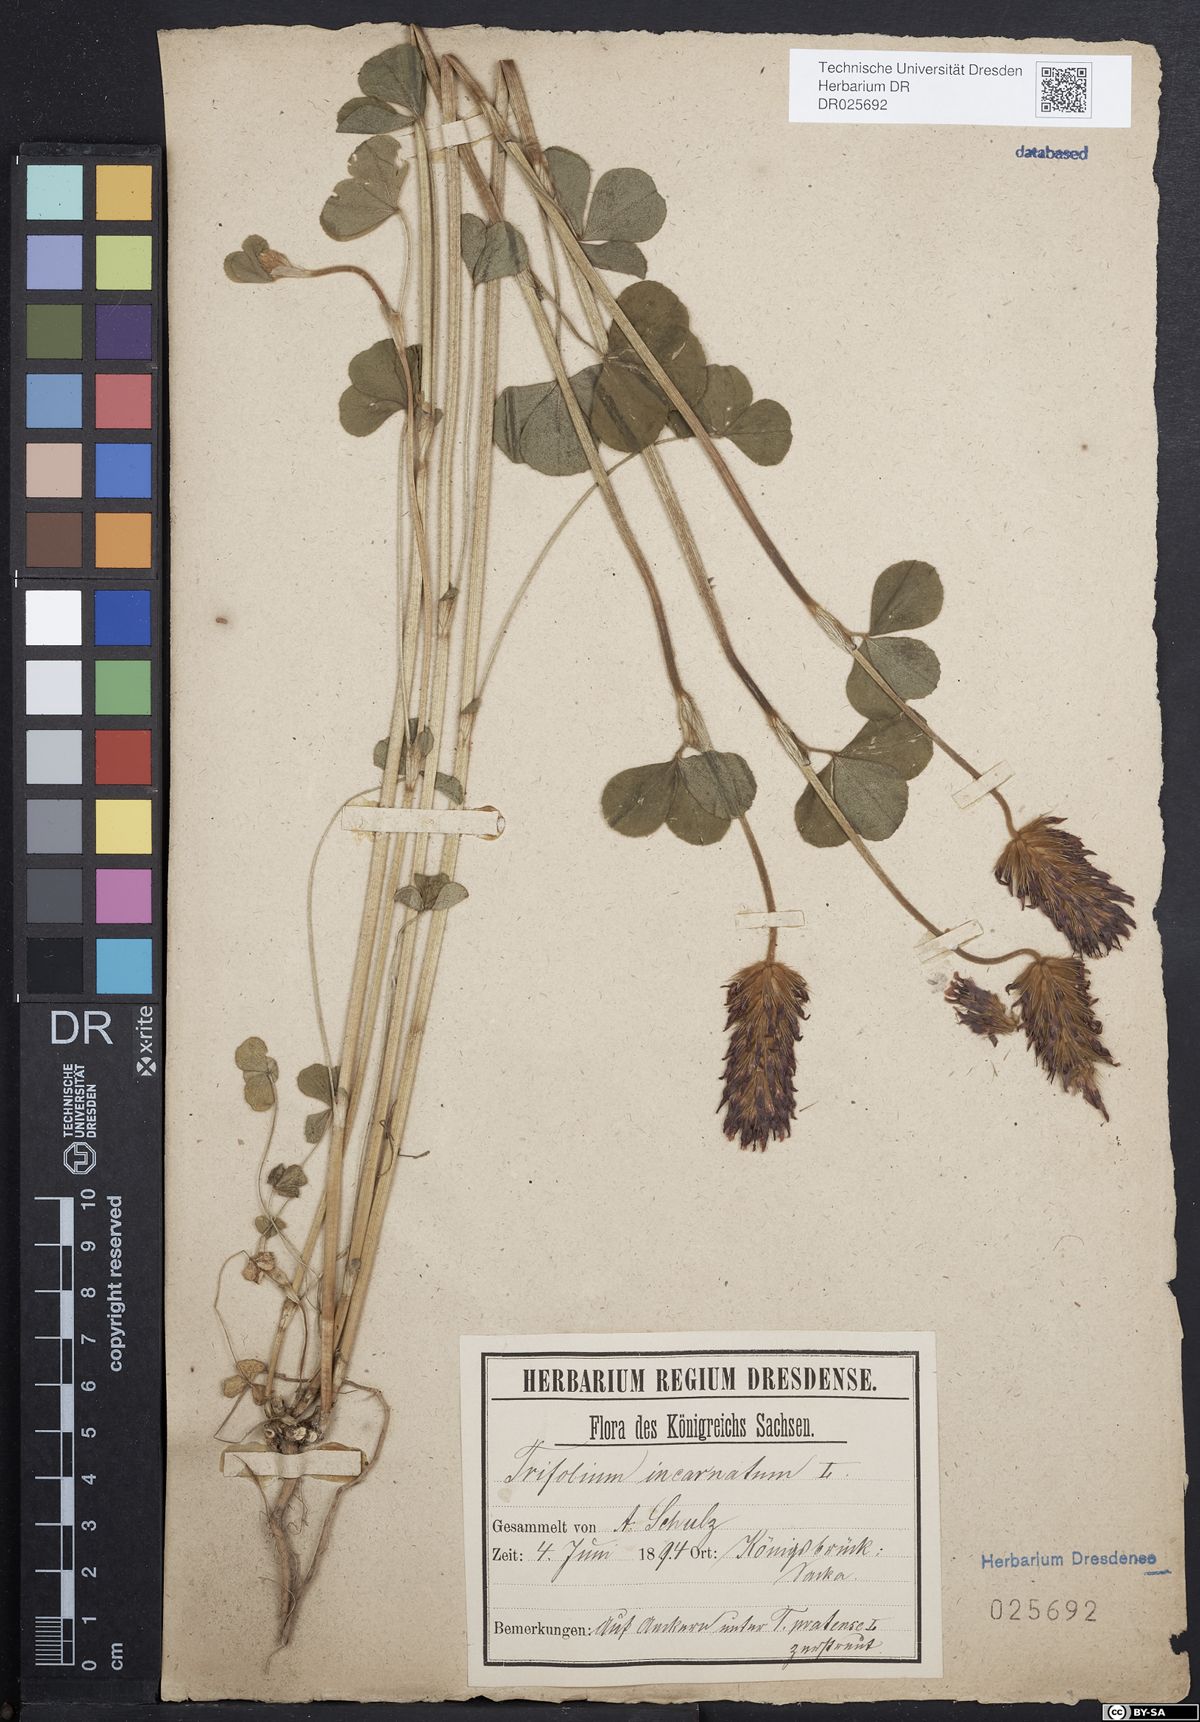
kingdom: Plantae
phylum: Tracheophyta
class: Magnoliopsida
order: Fabales
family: Fabaceae
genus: Trifolium
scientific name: Trifolium incarnatum
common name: Crimson clover
